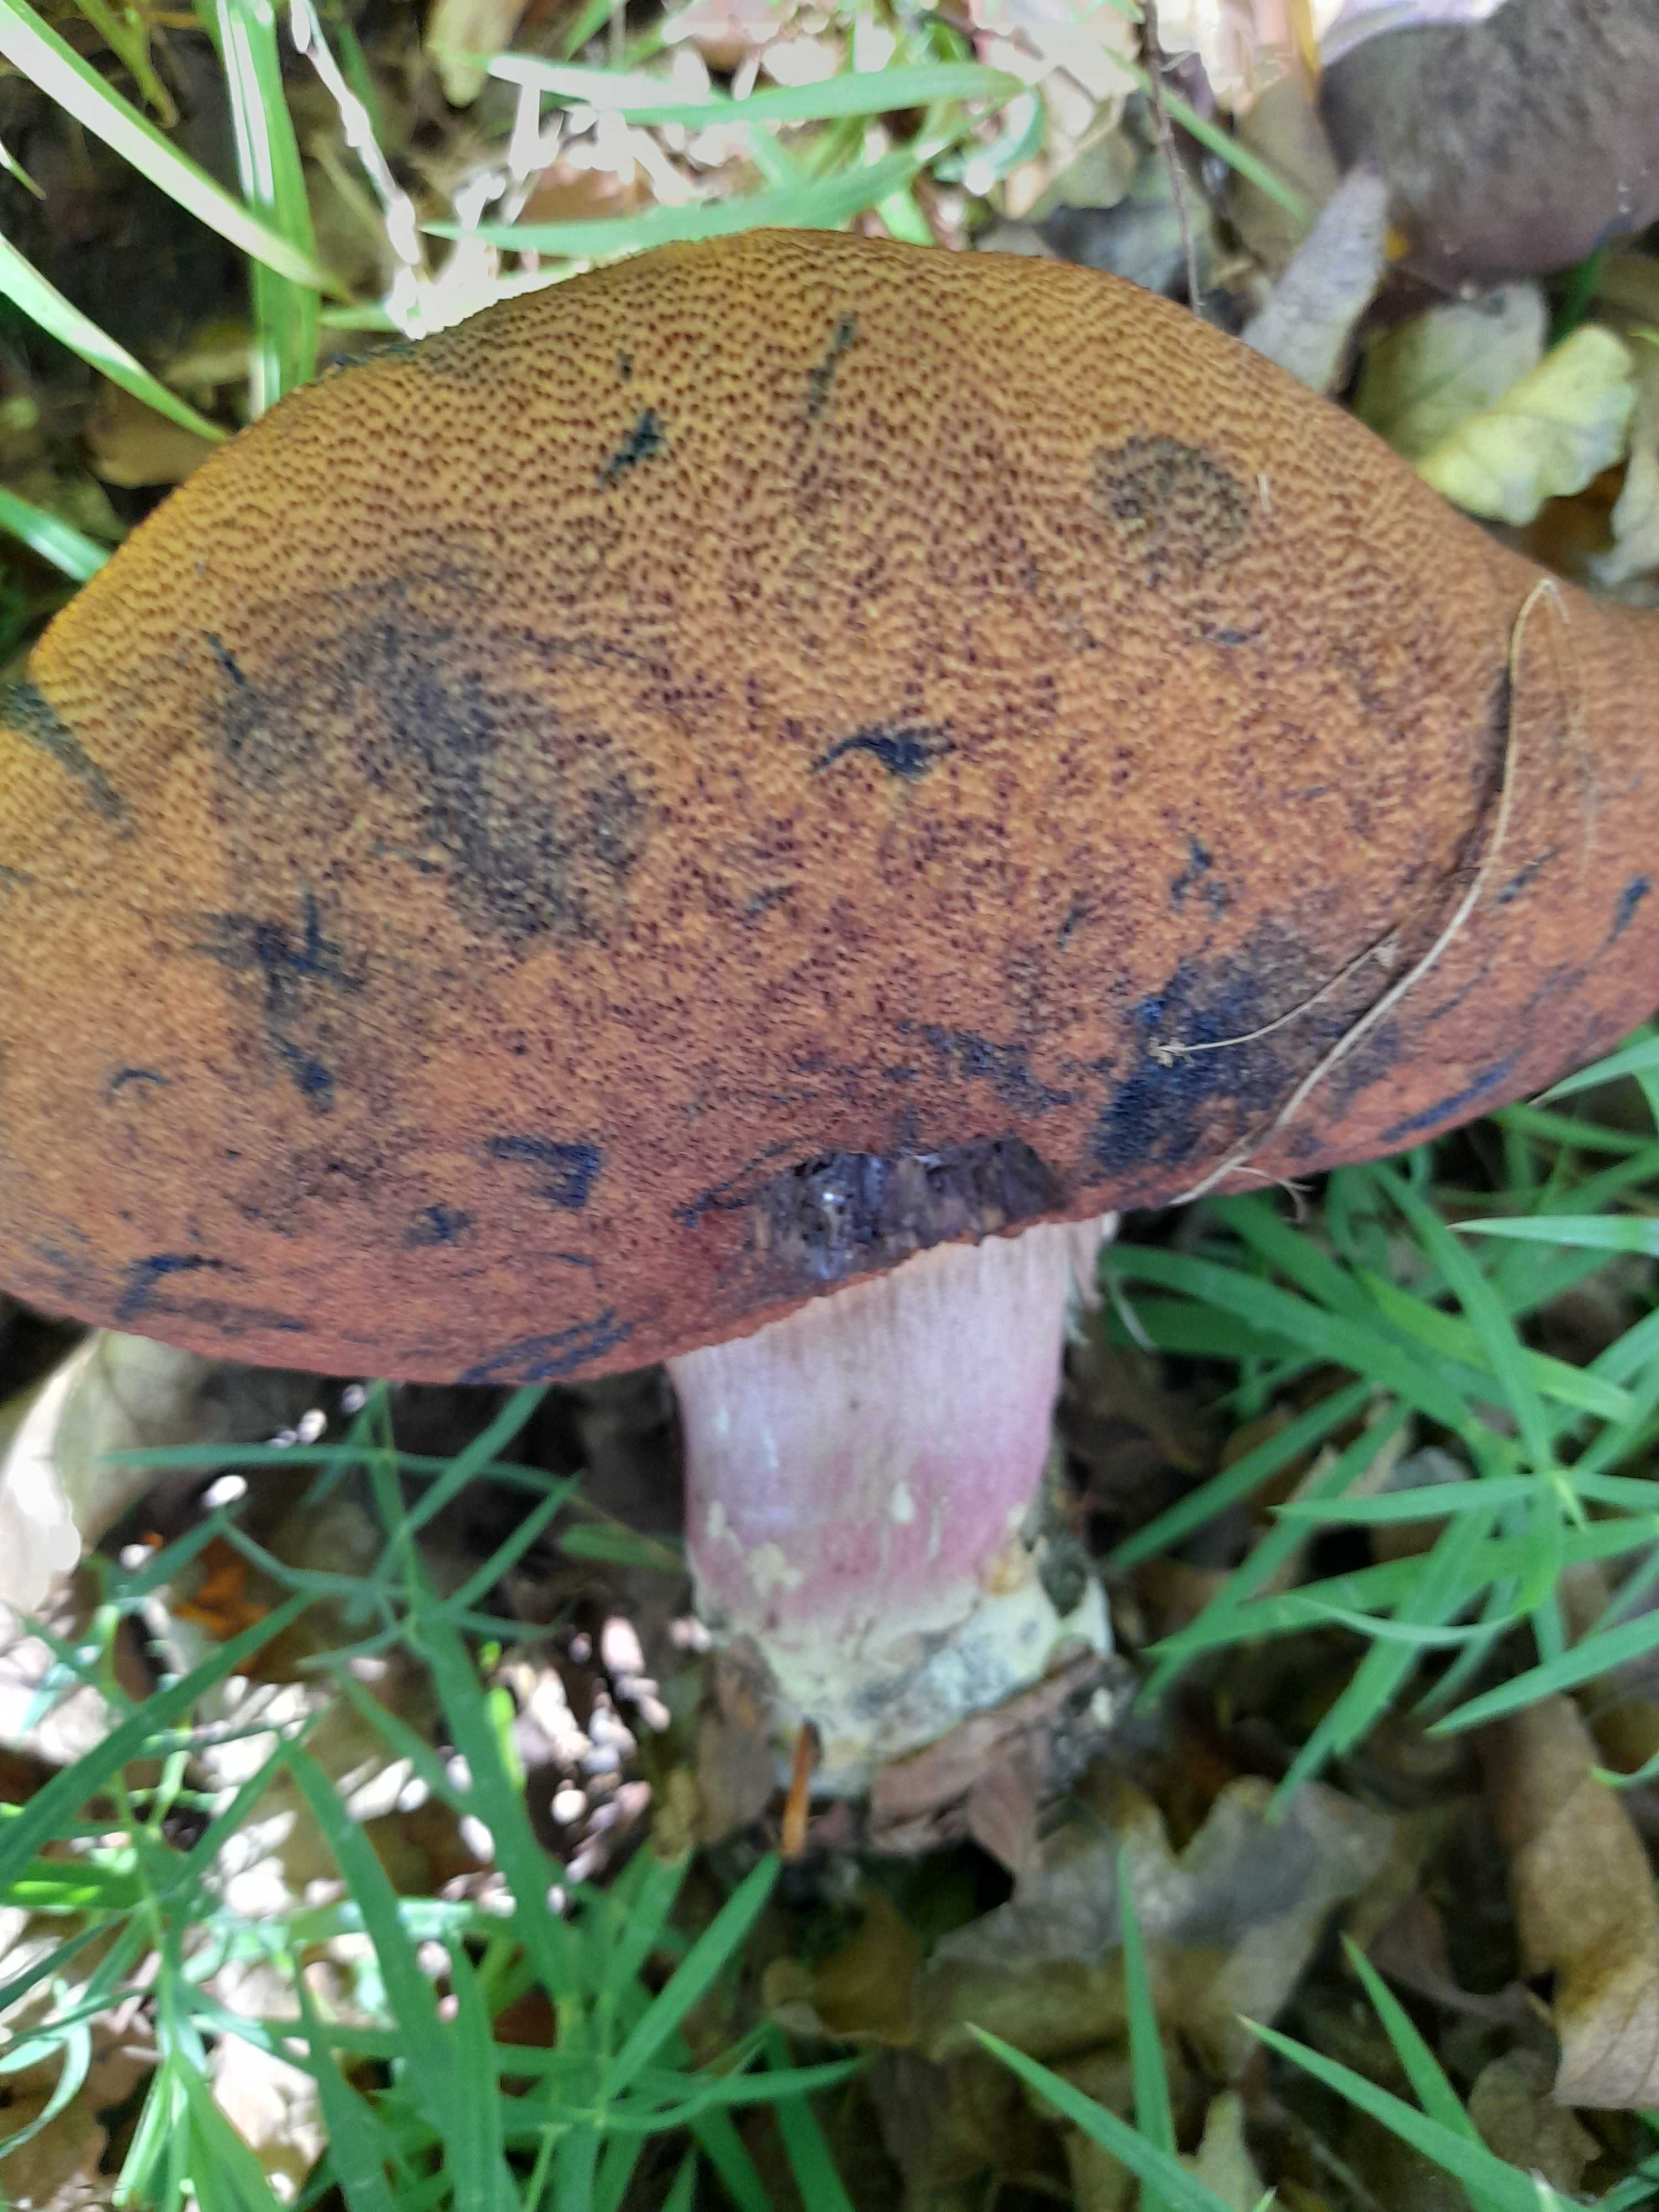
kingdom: Fungi
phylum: Basidiomycota
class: Agaricomycetes
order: Boletales
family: Boletaceae
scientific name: Boletaceae
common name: rørhatfamilien
